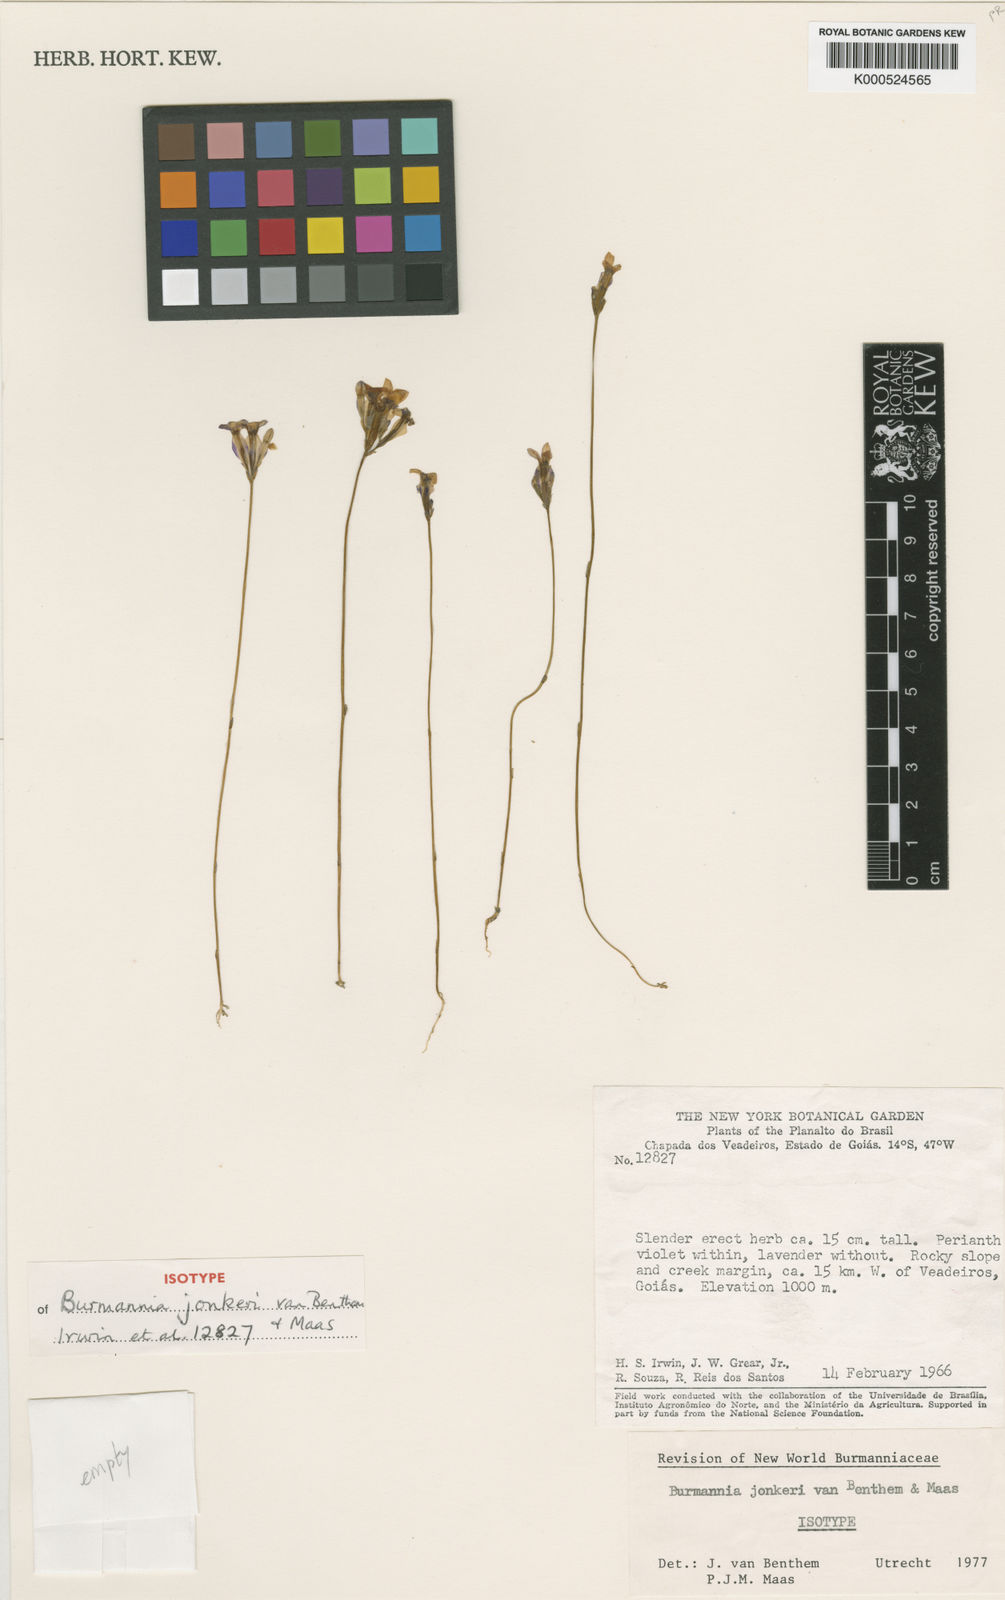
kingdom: Plantae
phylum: Tracheophyta
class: Liliopsida
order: Dioscoreales
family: Burmanniaceae
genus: Burmannia
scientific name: Burmannia jonkeri
